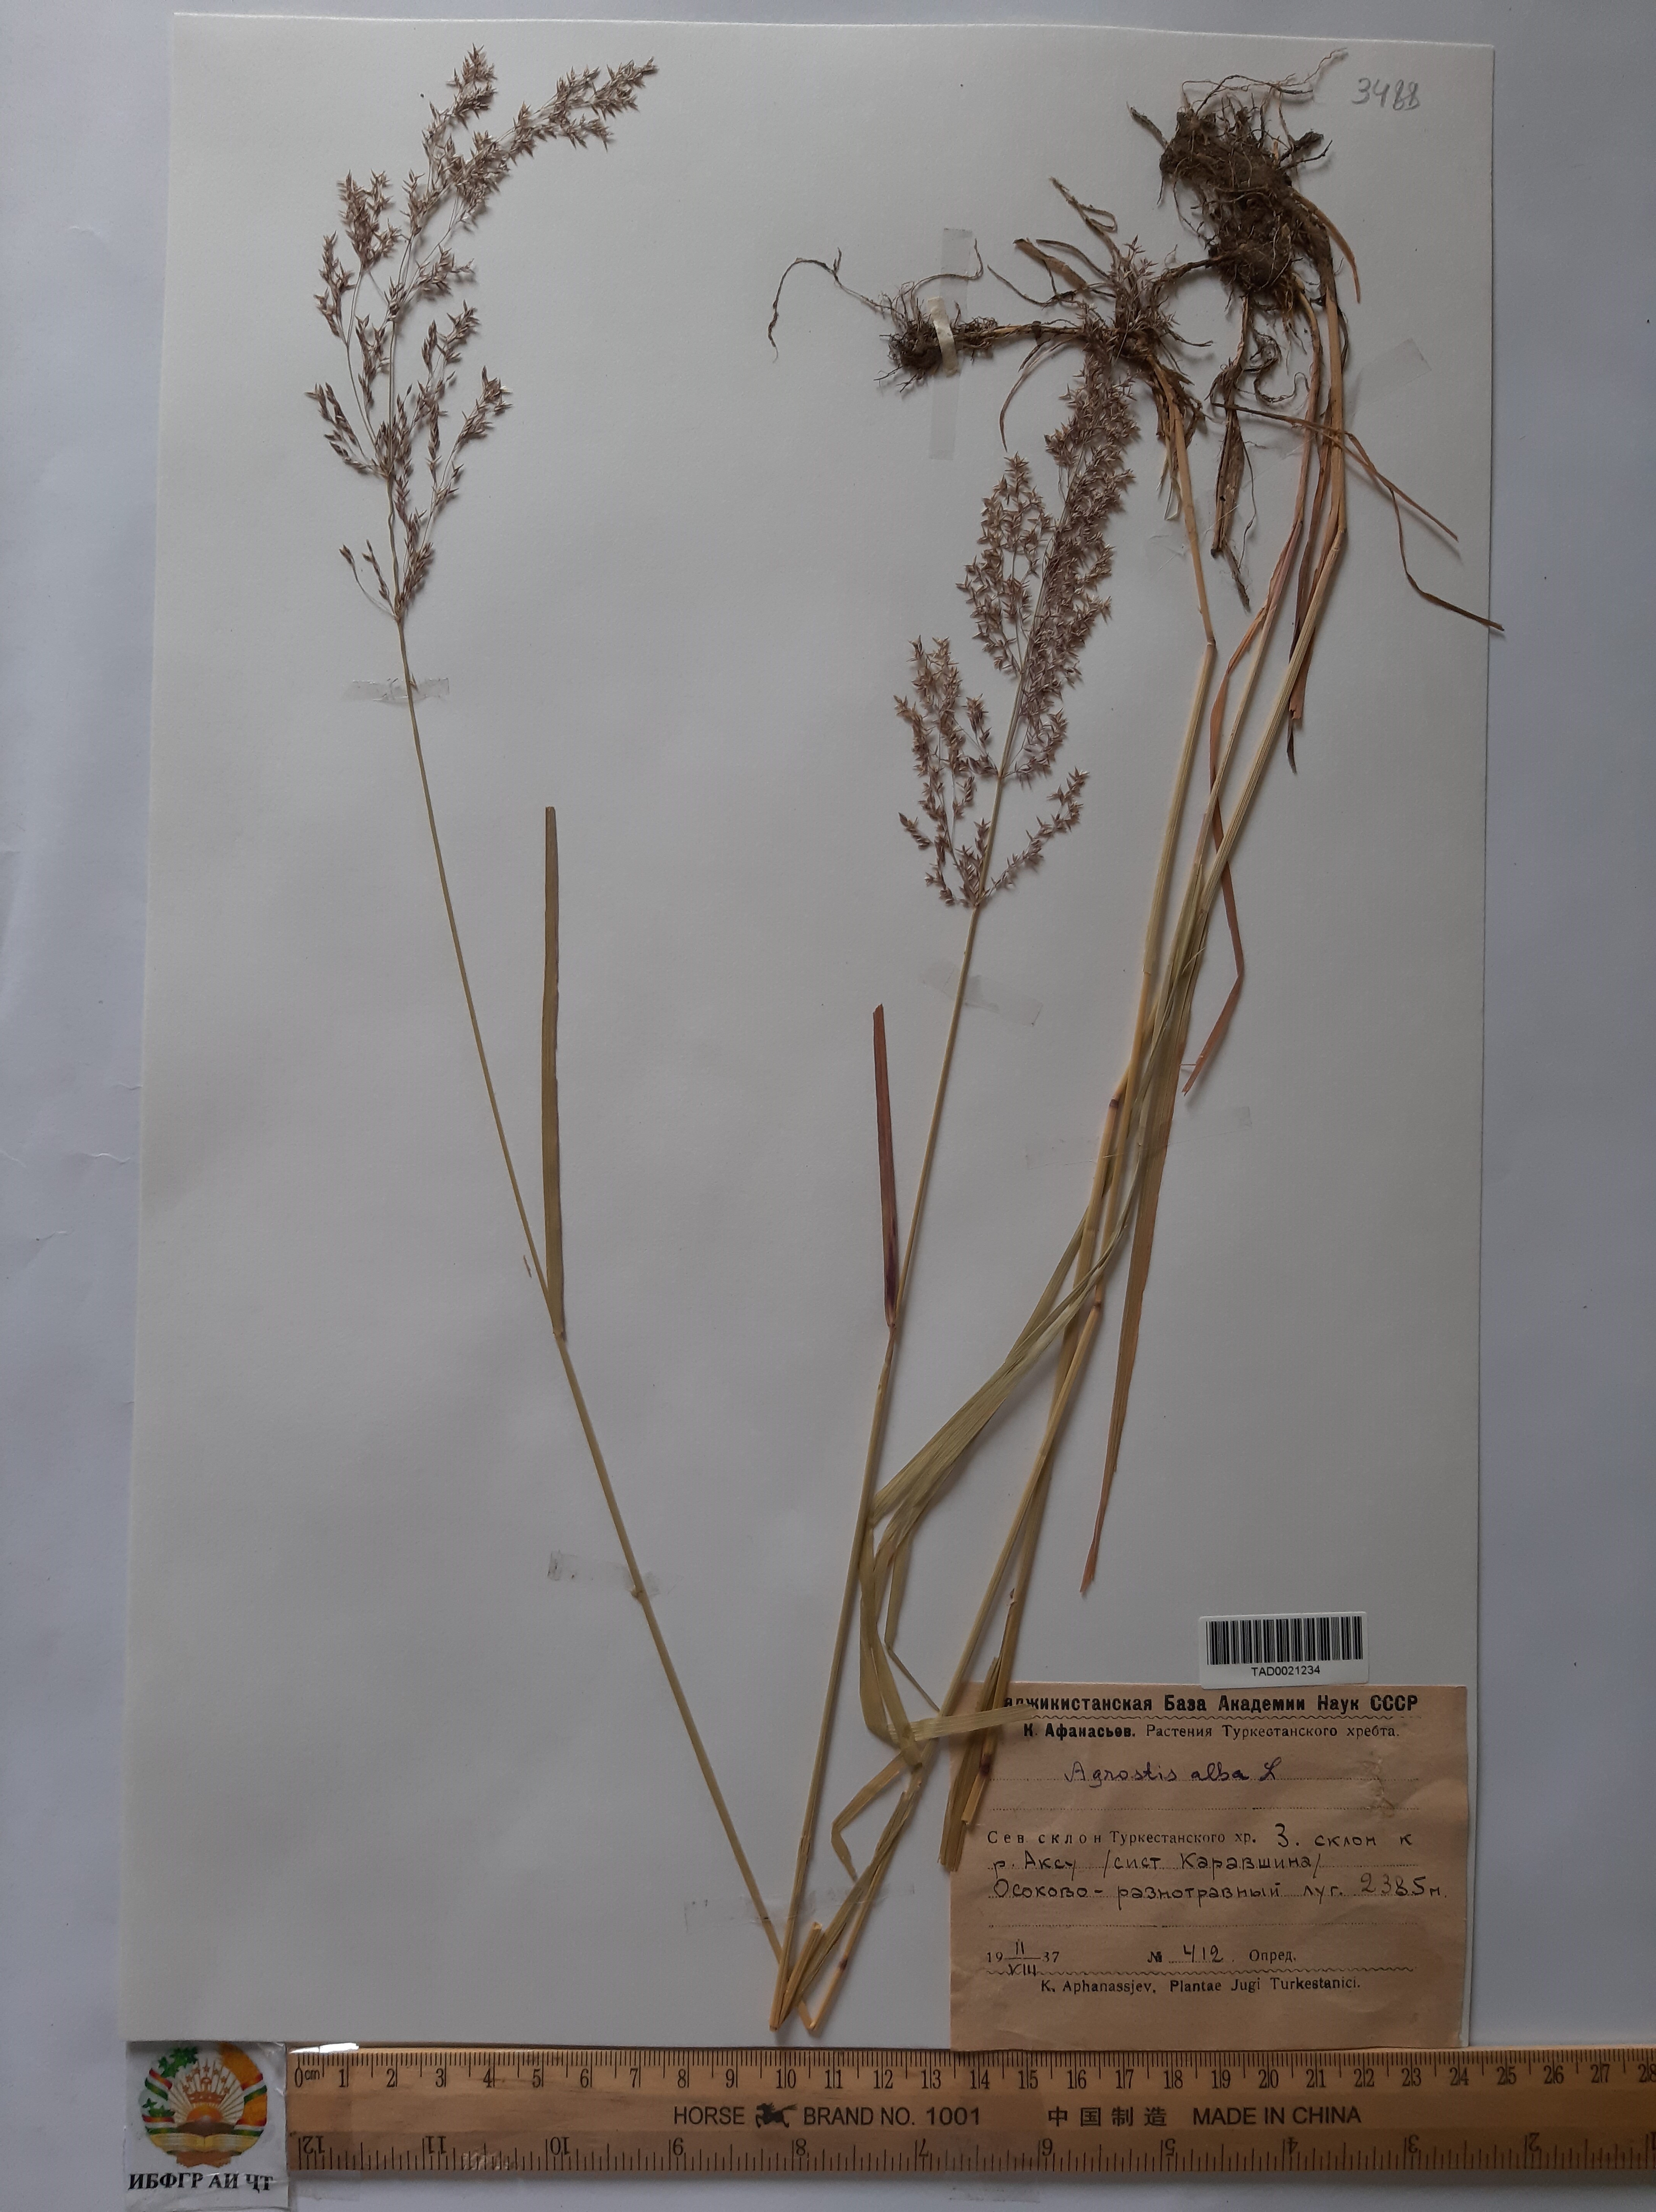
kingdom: Plantae
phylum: Tracheophyta
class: Liliopsida
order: Poales
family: Poaceae
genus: Poa
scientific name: Poa nemoralis
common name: Wood bluegrass
